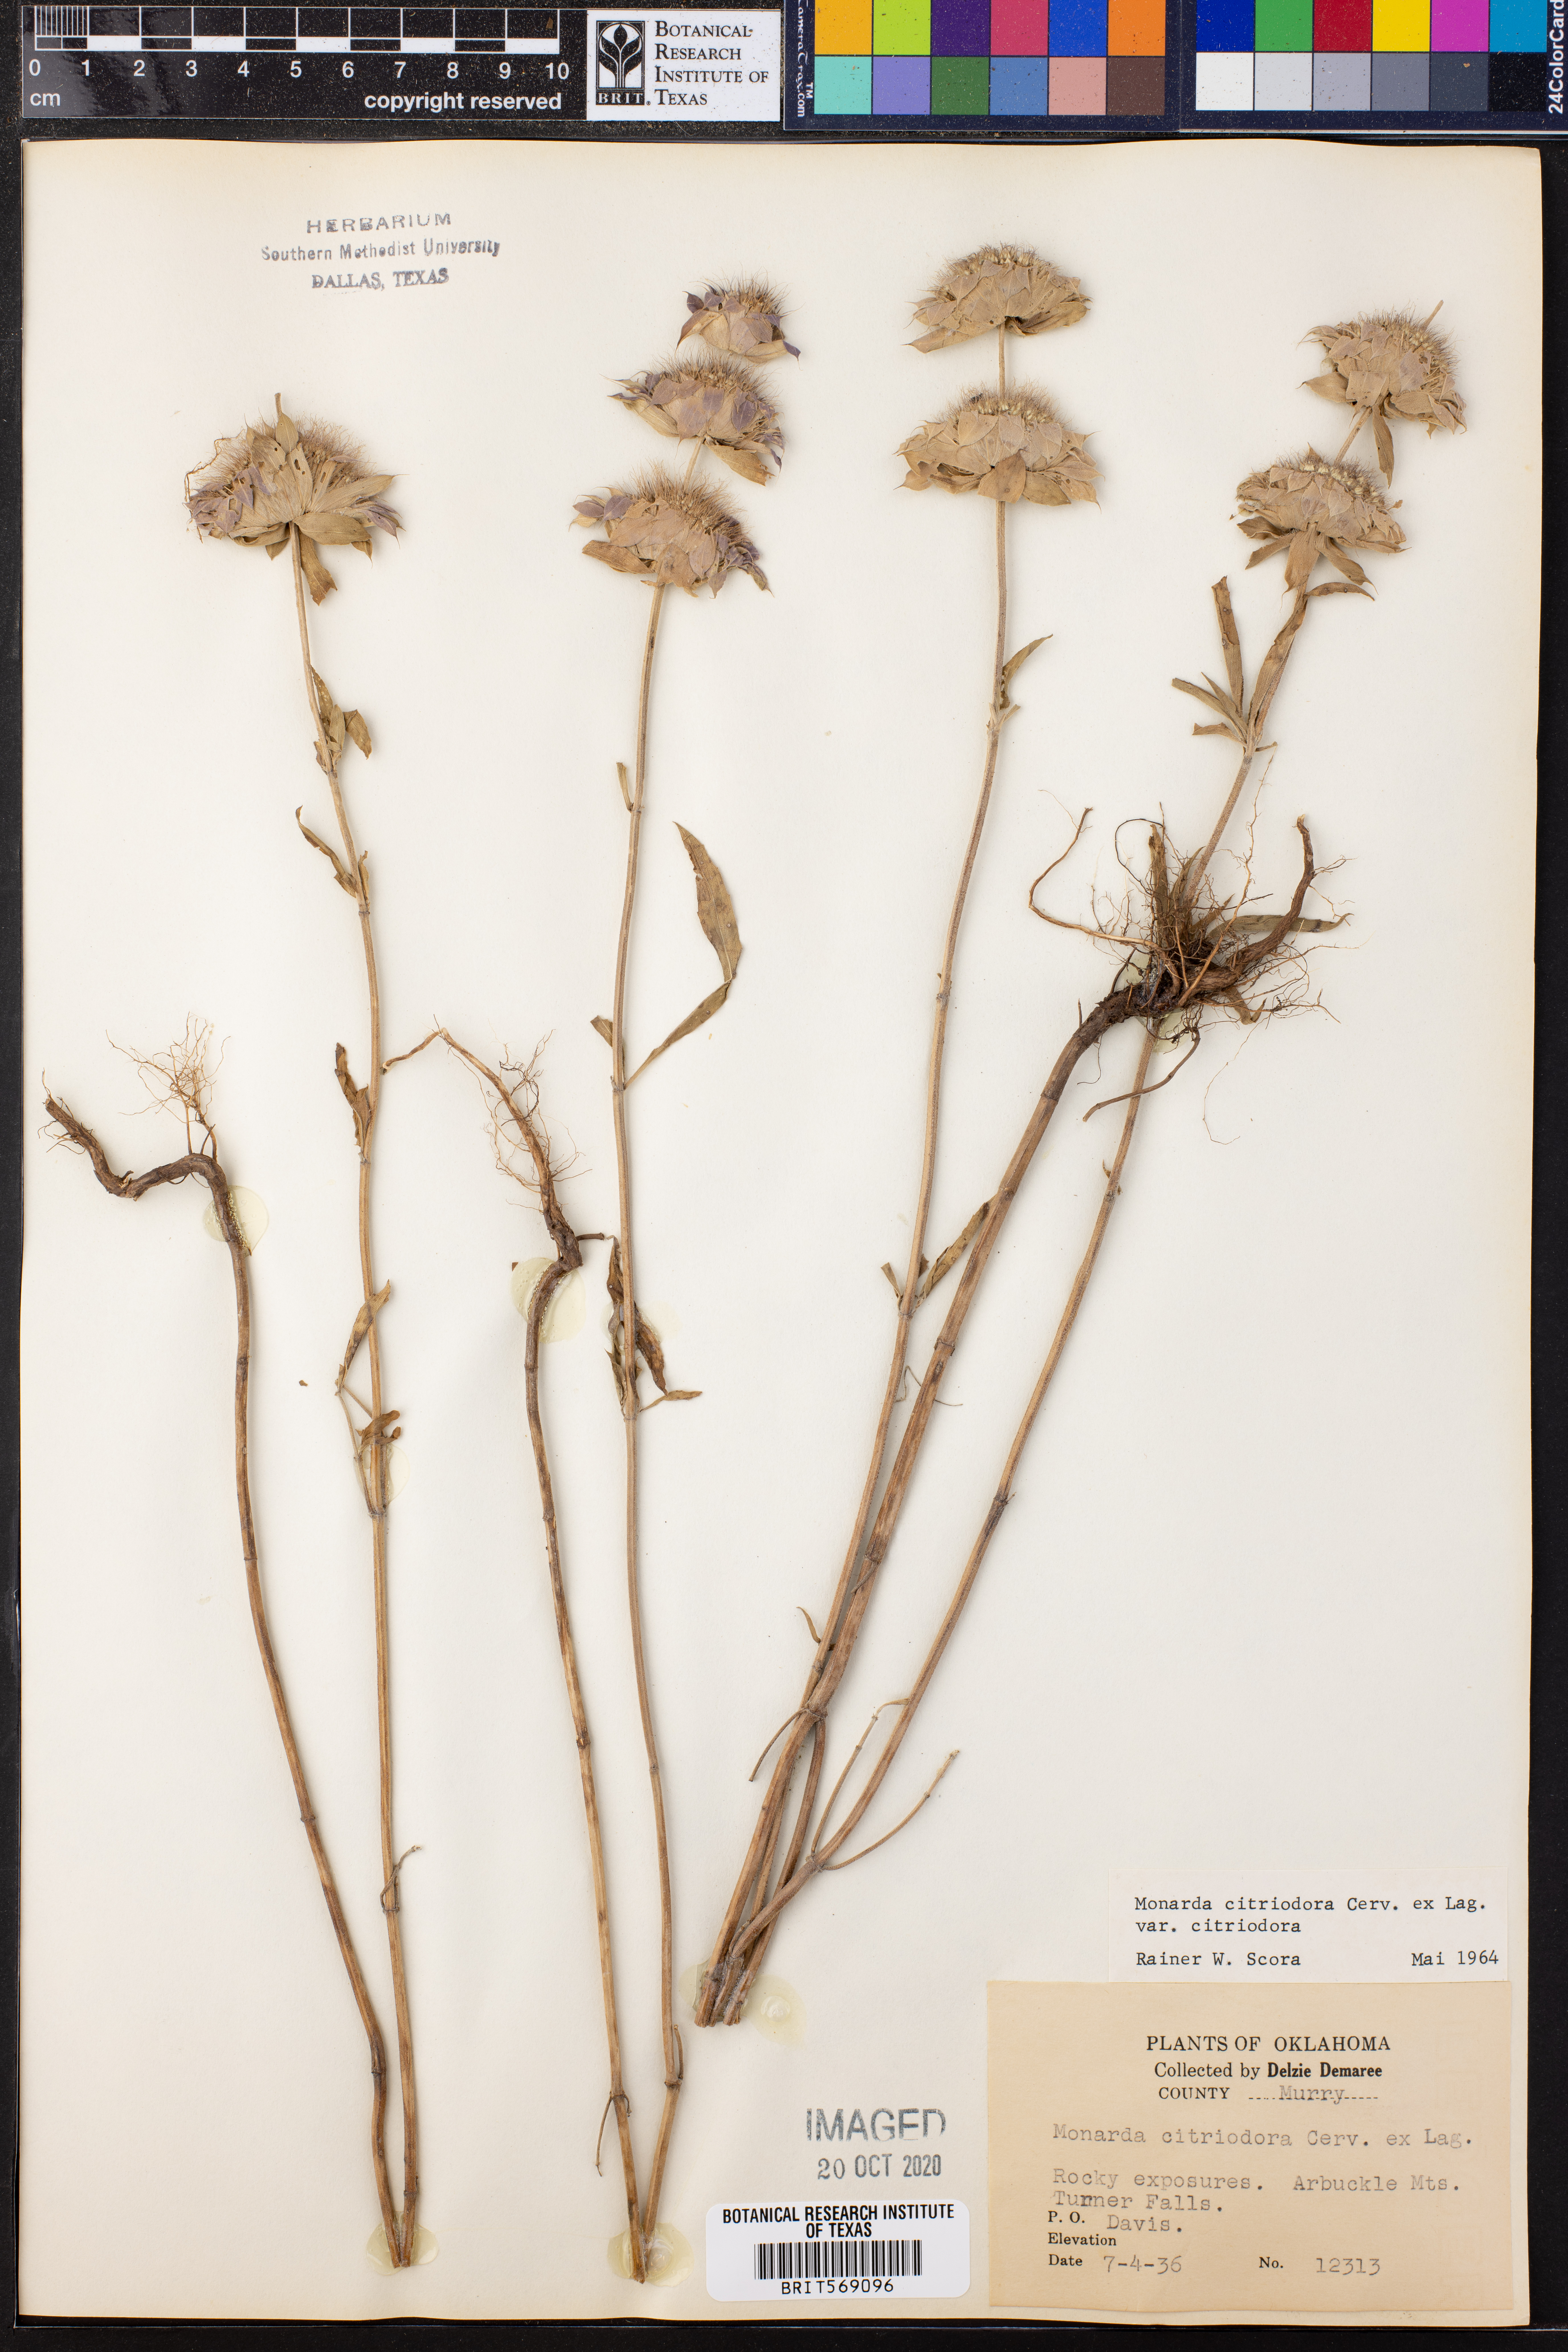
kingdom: Plantae
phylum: Tracheophyta
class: Magnoliopsida
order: Lamiales
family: Lamiaceae
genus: Monarda
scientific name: Monarda citriodora
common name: Lemon beebalm
